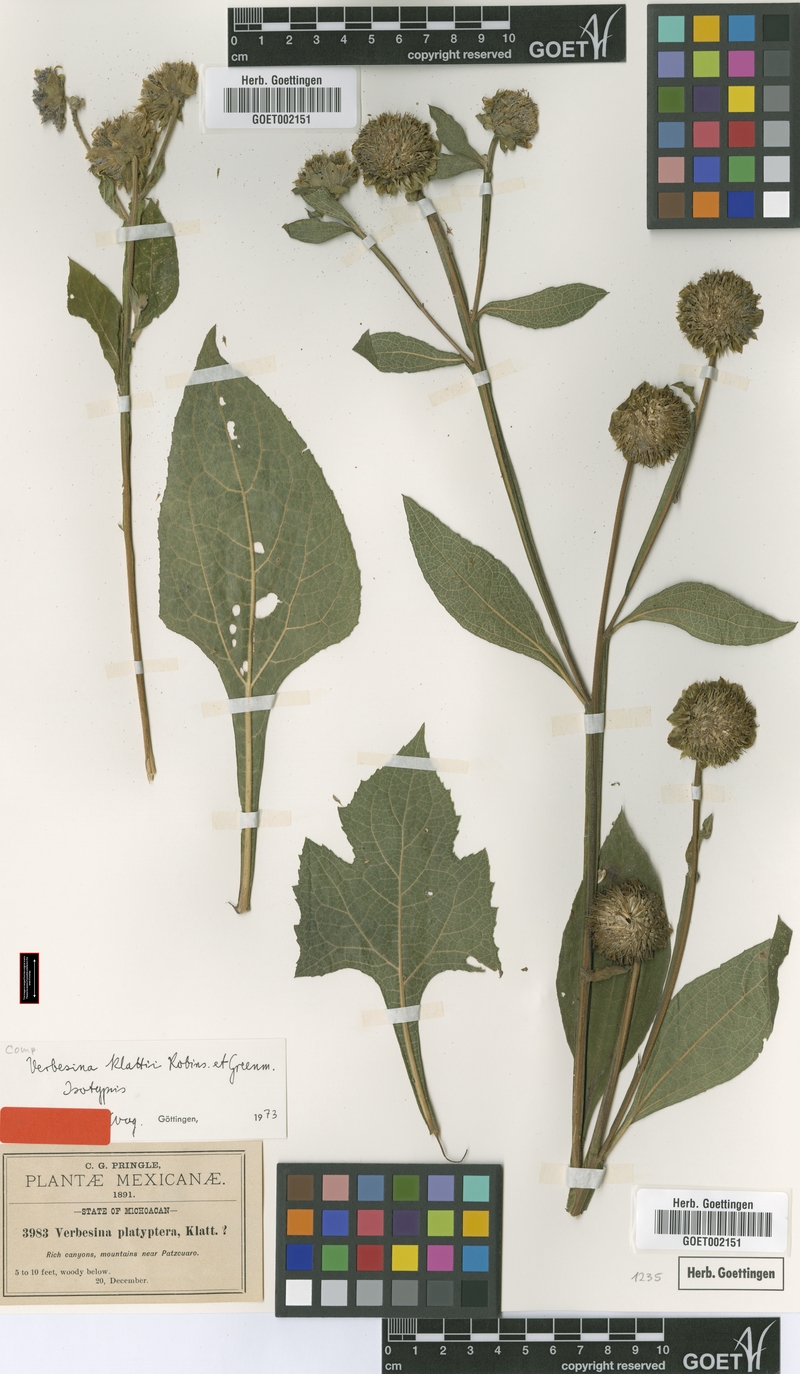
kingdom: Plantae
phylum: Tracheophyta
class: Magnoliopsida
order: Asterales
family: Asteraceae
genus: Verbesina
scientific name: Verbesina klattii
